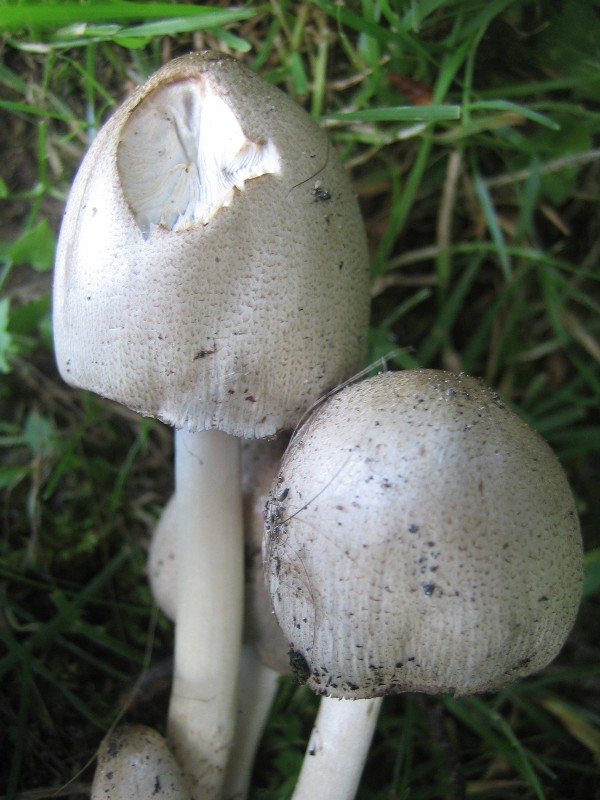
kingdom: Fungi
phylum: Basidiomycota
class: Agaricomycetes
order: Agaricales
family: Psathyrellaceae
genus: Coprinopsis
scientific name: Coprinopsis atramentaria
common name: almindelig blækhat
